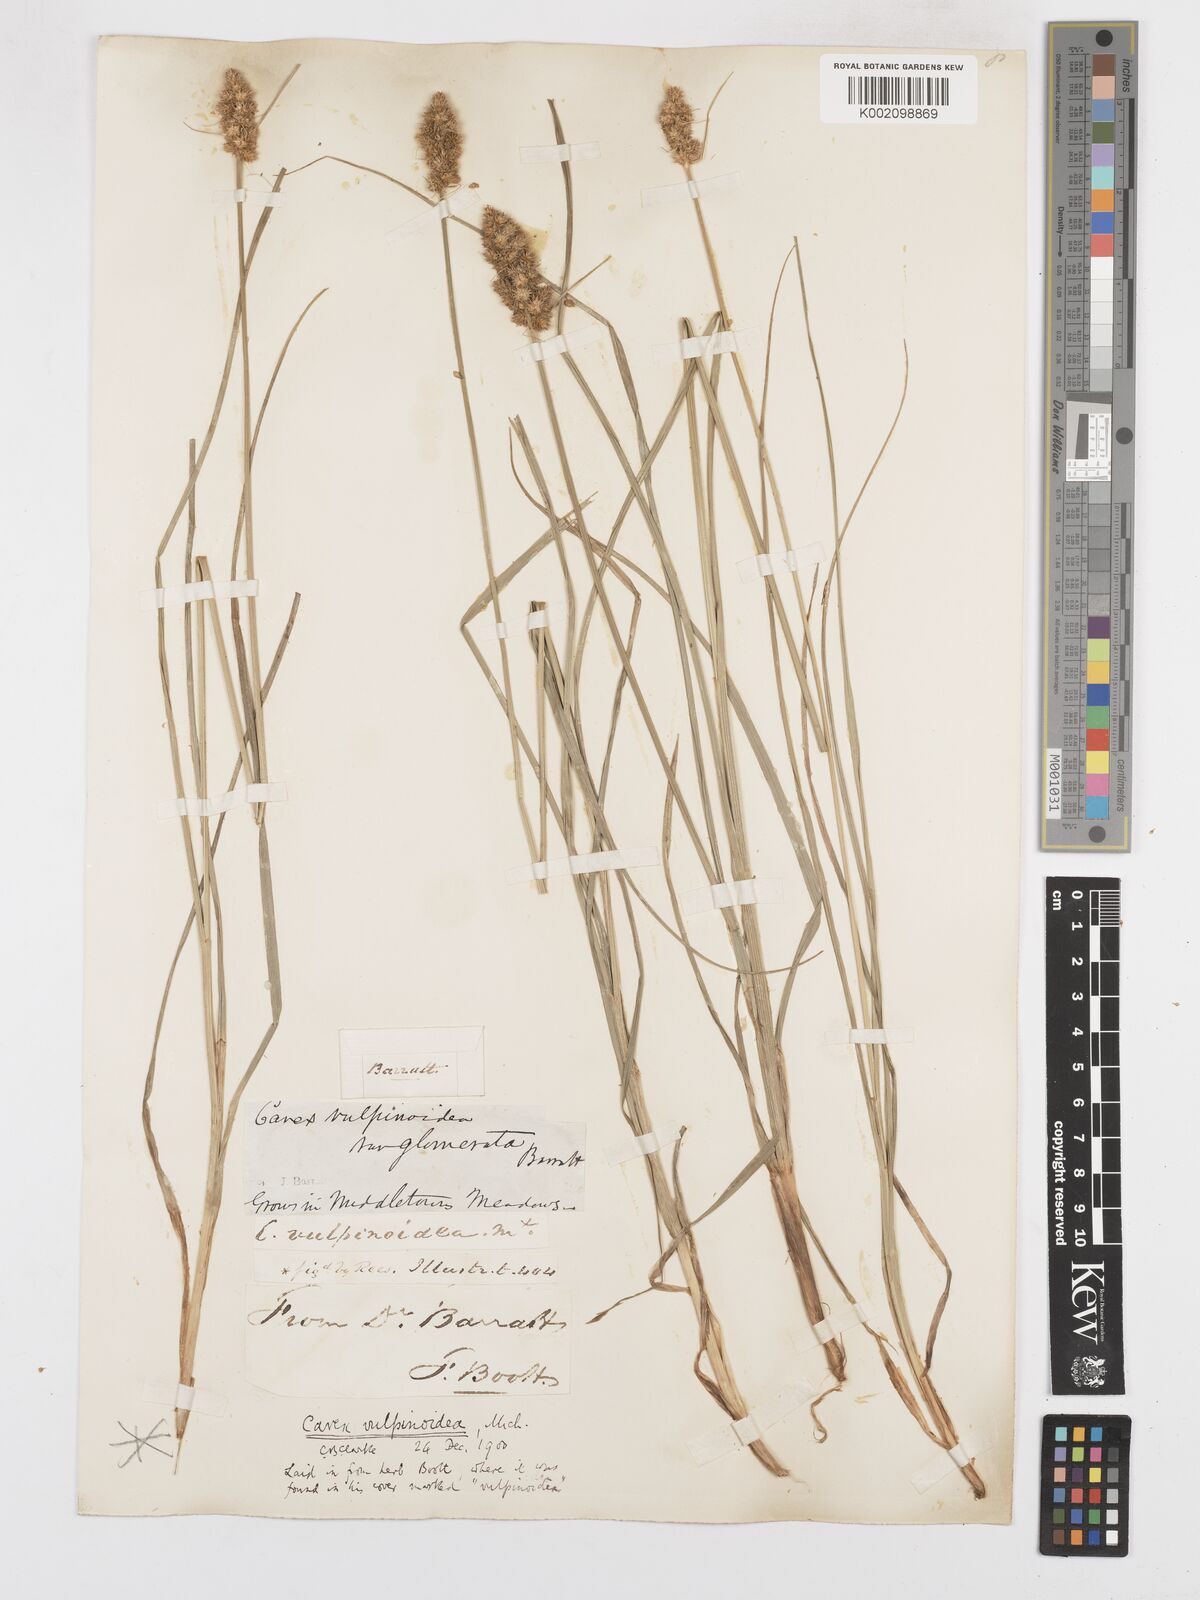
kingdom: Plantae
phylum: Tracheophyta
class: Liliopsida
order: Poales
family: Cyperaceae
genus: Carex
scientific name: Carex vulpinoidea
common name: American fox-sedge
